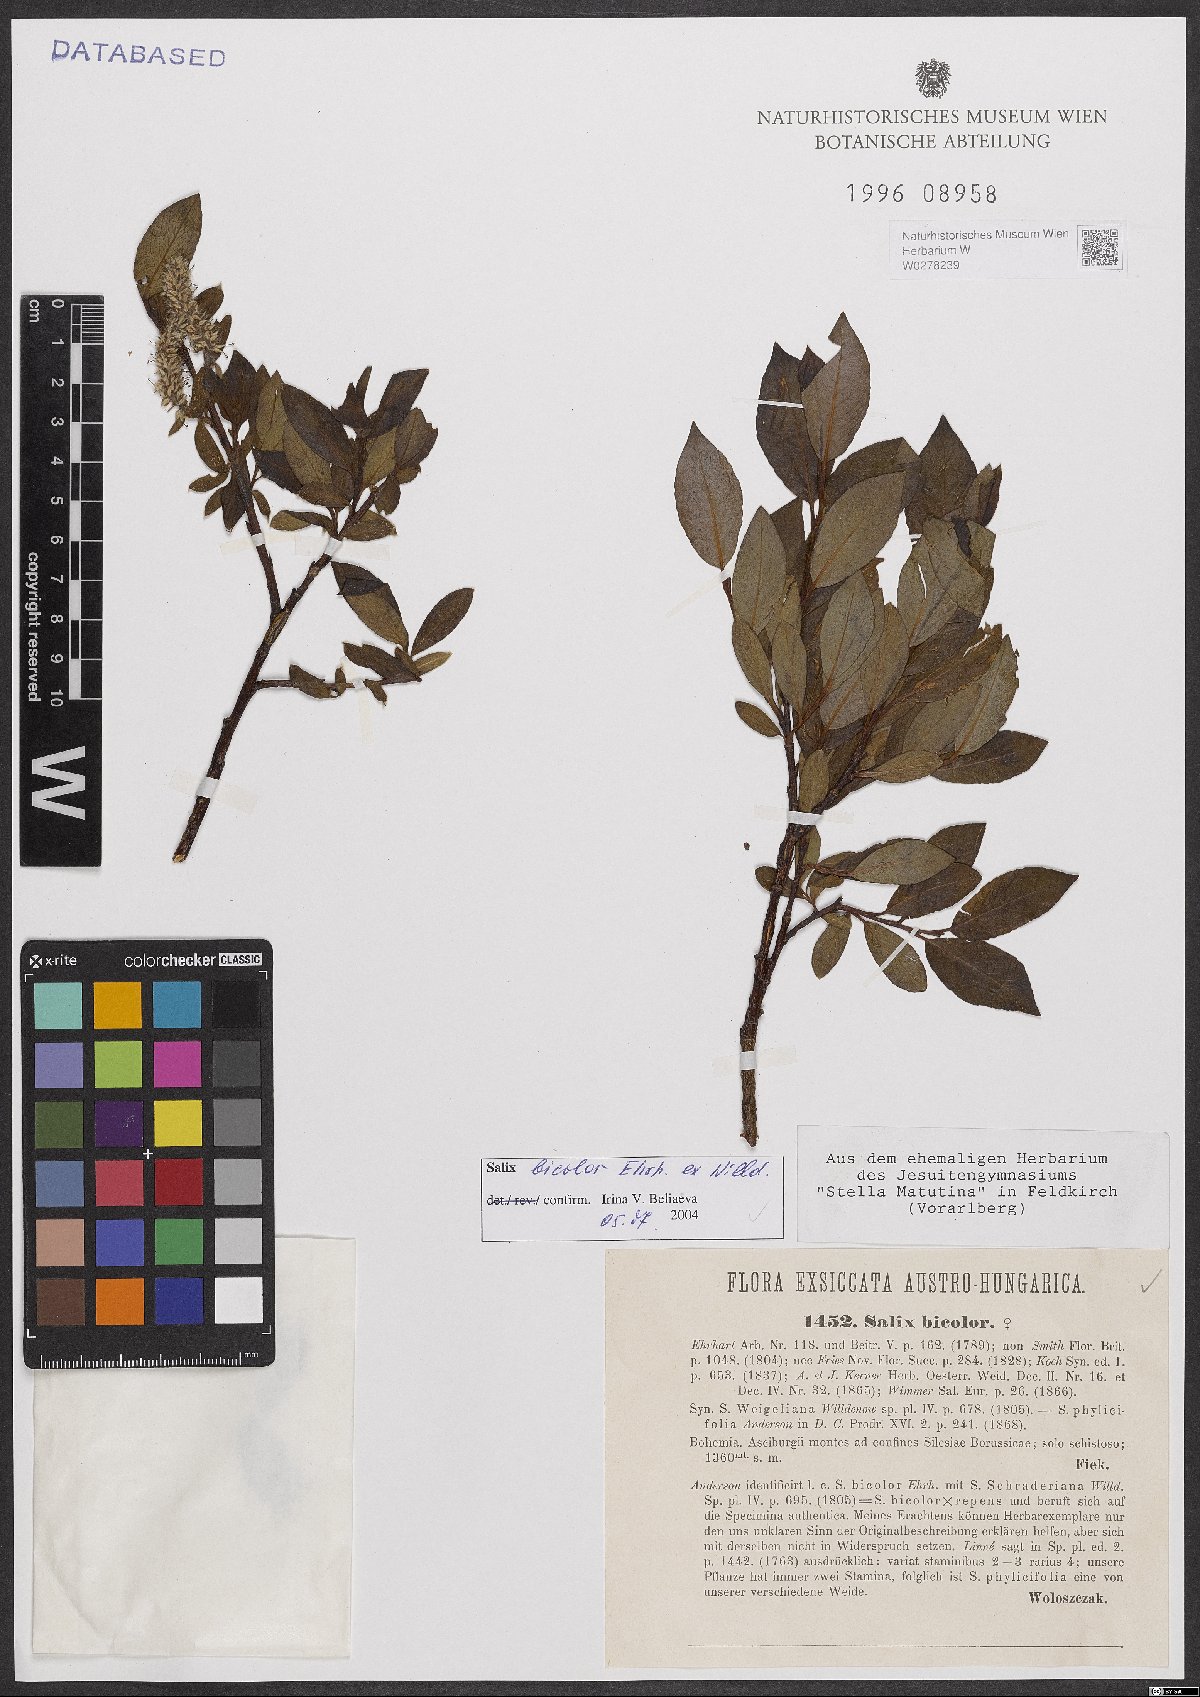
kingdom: Plantae
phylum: Tracheophyta
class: Magnoliopsida
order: Malpighiales
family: Salicaceae
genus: Salix
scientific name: Salix bicolor
